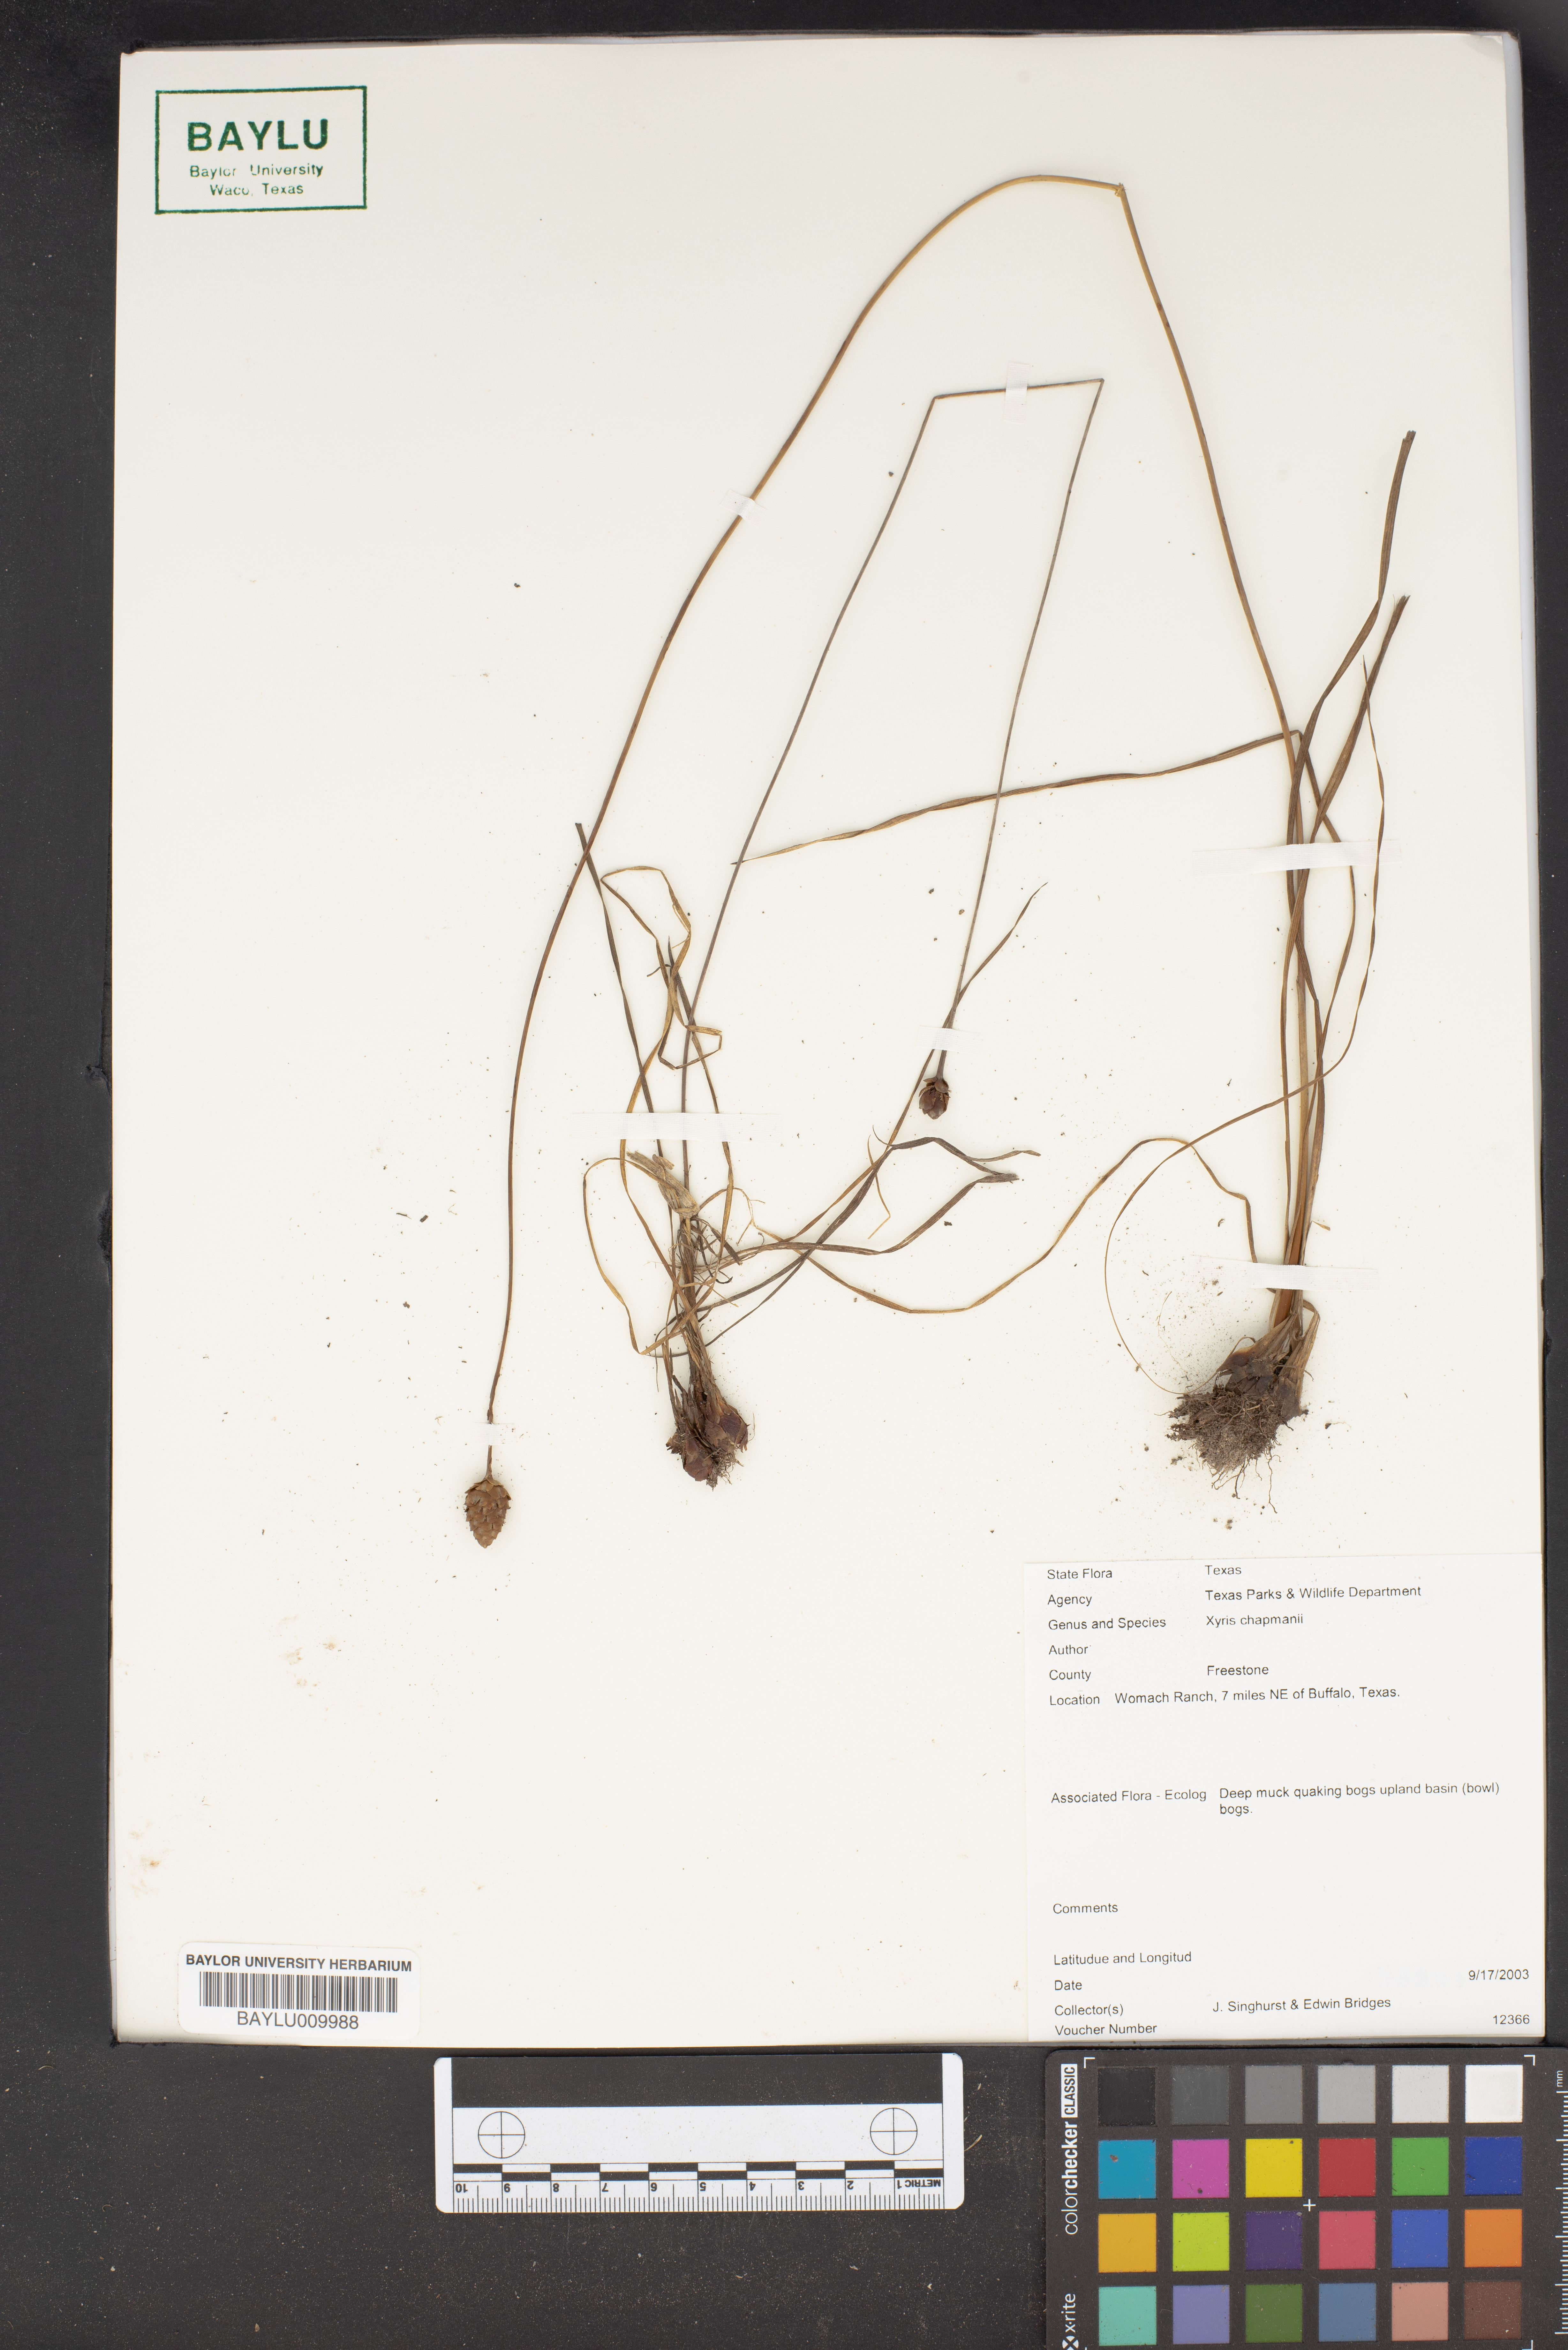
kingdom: Plantae
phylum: Tracheophyta
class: Liliopsida
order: Poales
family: Xyridaceae
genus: Xyris
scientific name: Xyris chapmanii
